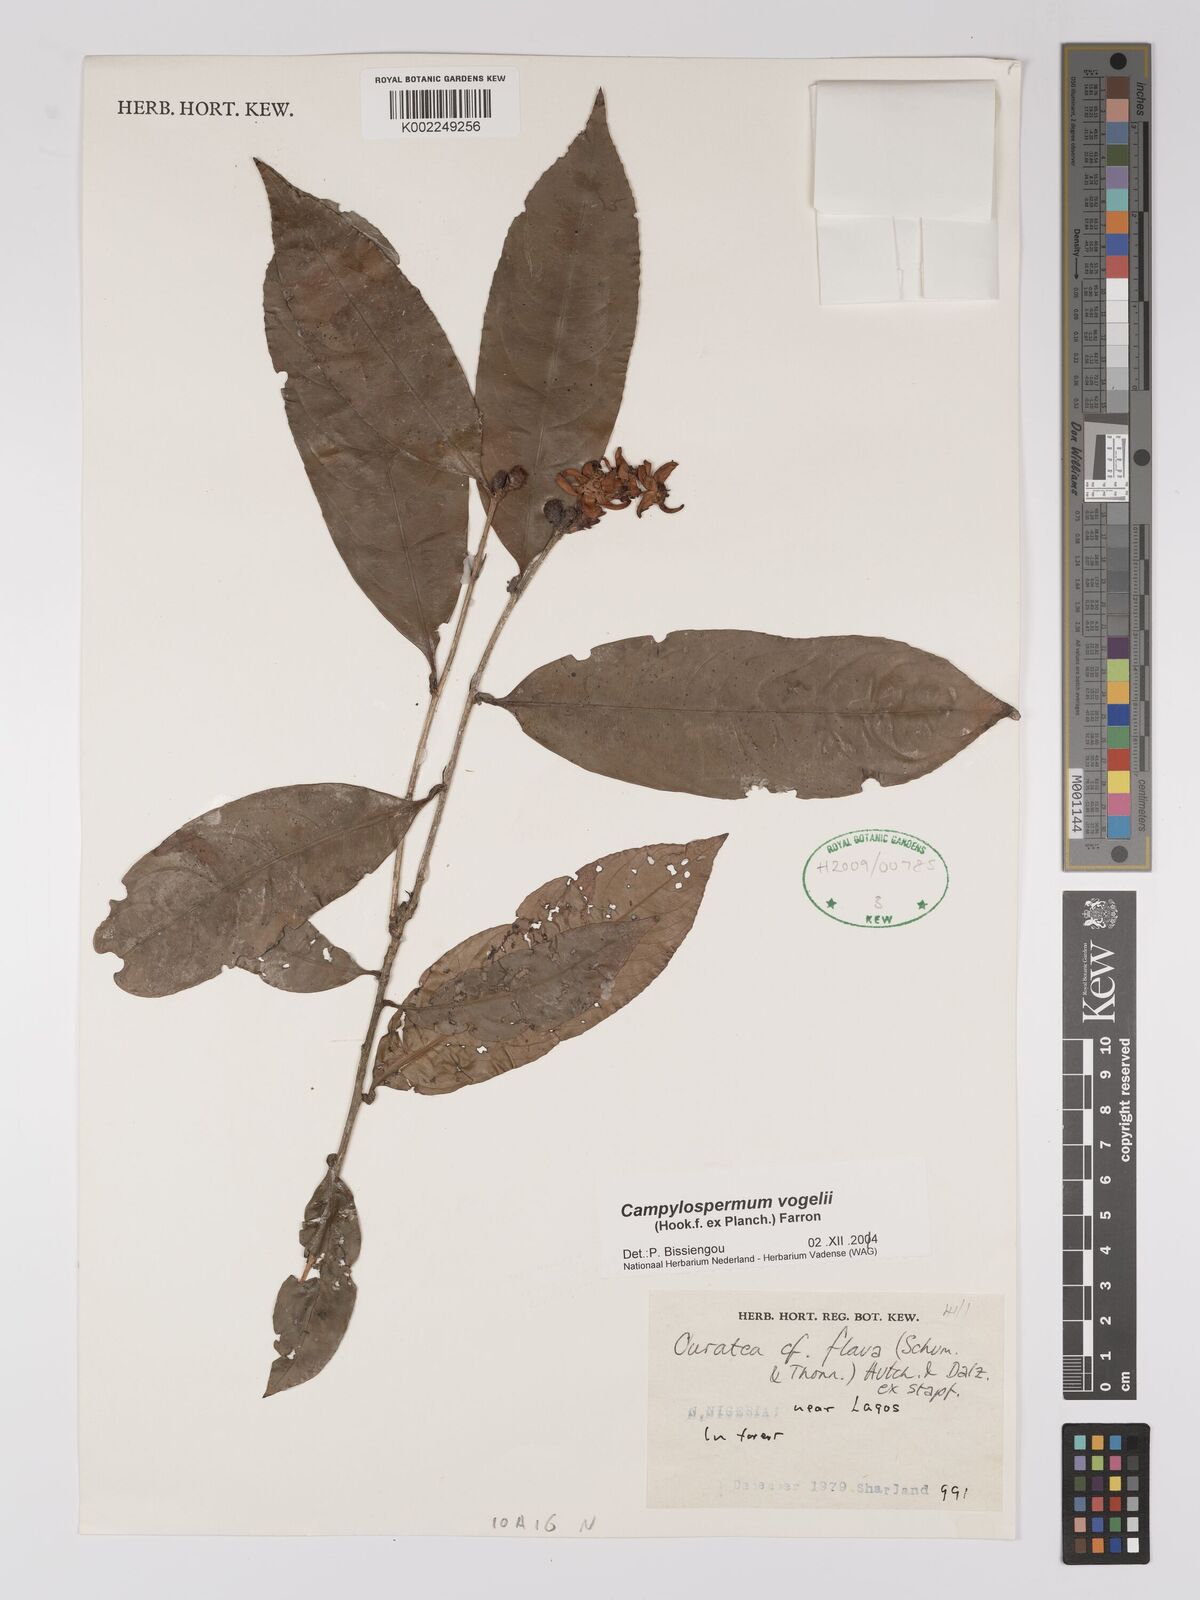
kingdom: Plantae
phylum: Tracheophyta
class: Magnoliopsida
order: Malpighiales
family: Ochnaceae
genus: Campylospermum
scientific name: Campylospermum vogelii
